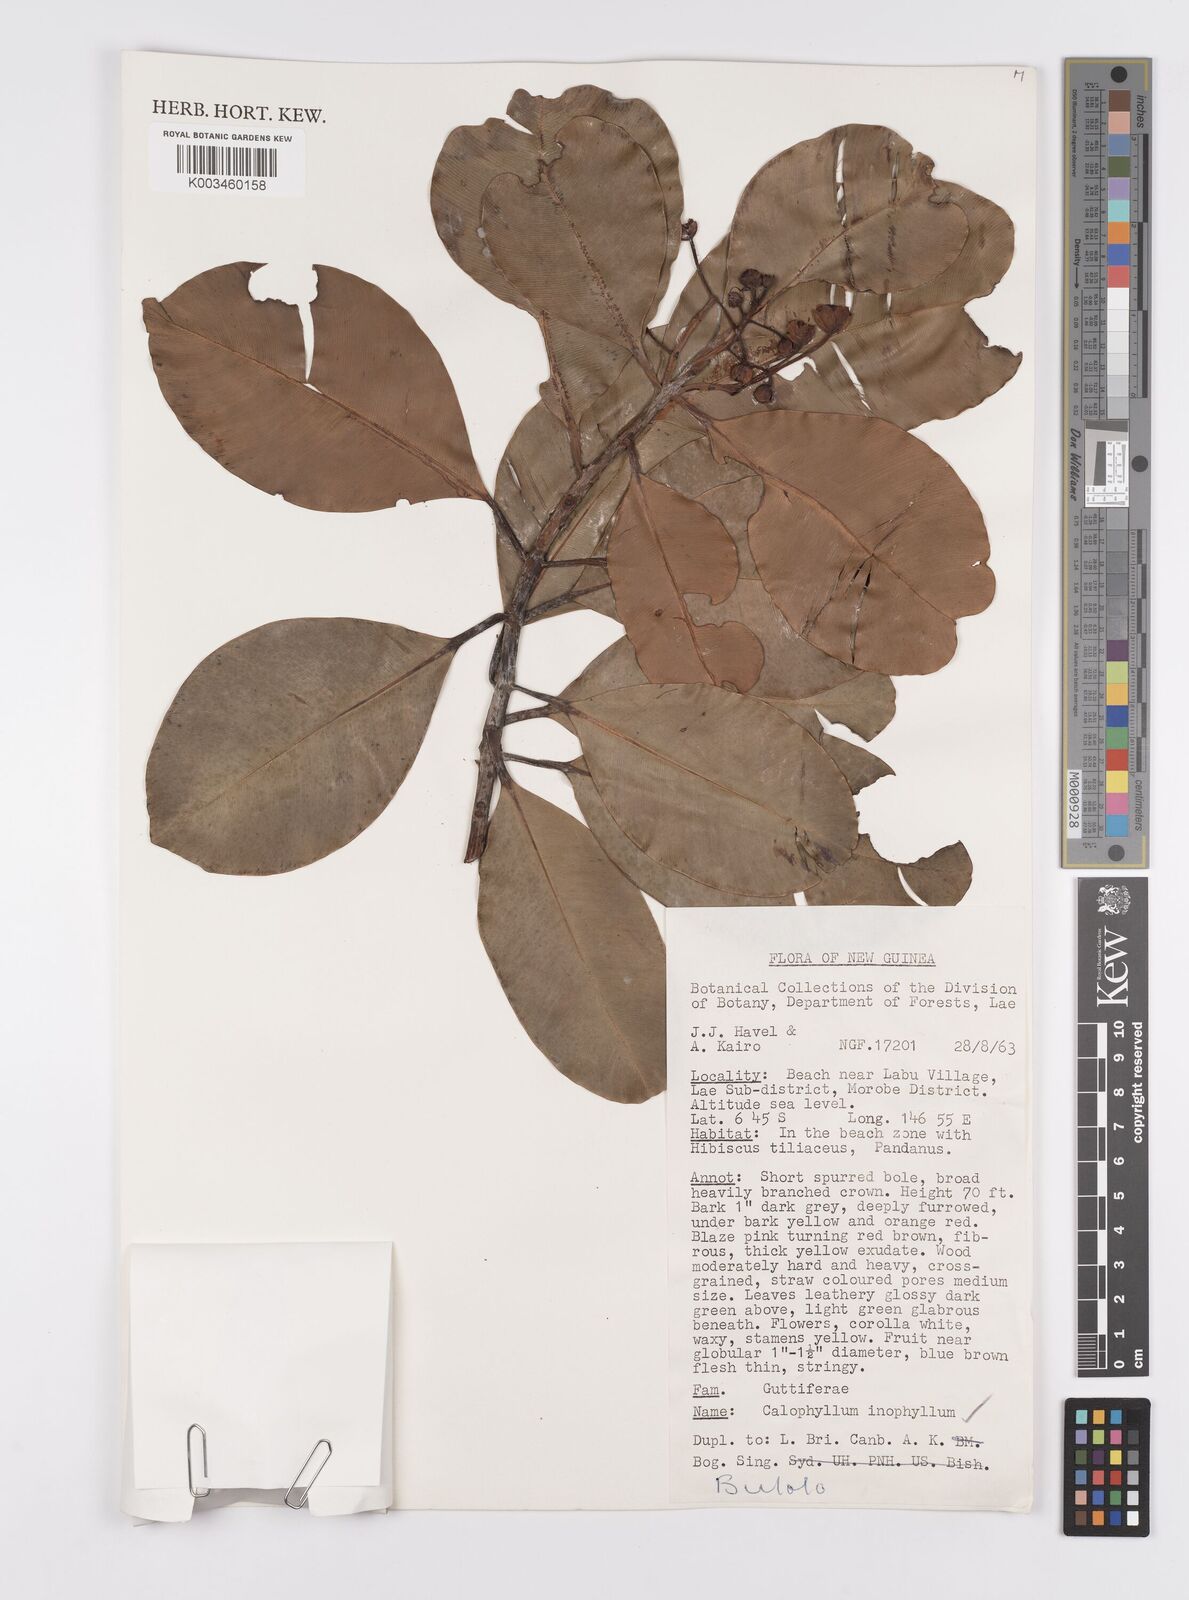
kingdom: Plantae
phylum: Tracheophyta
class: Magnoliopsida
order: Malpighiales
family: Calophyllaceae
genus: Calophyllum
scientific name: Calophyllum inophyllum
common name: Alexandrian laurel
